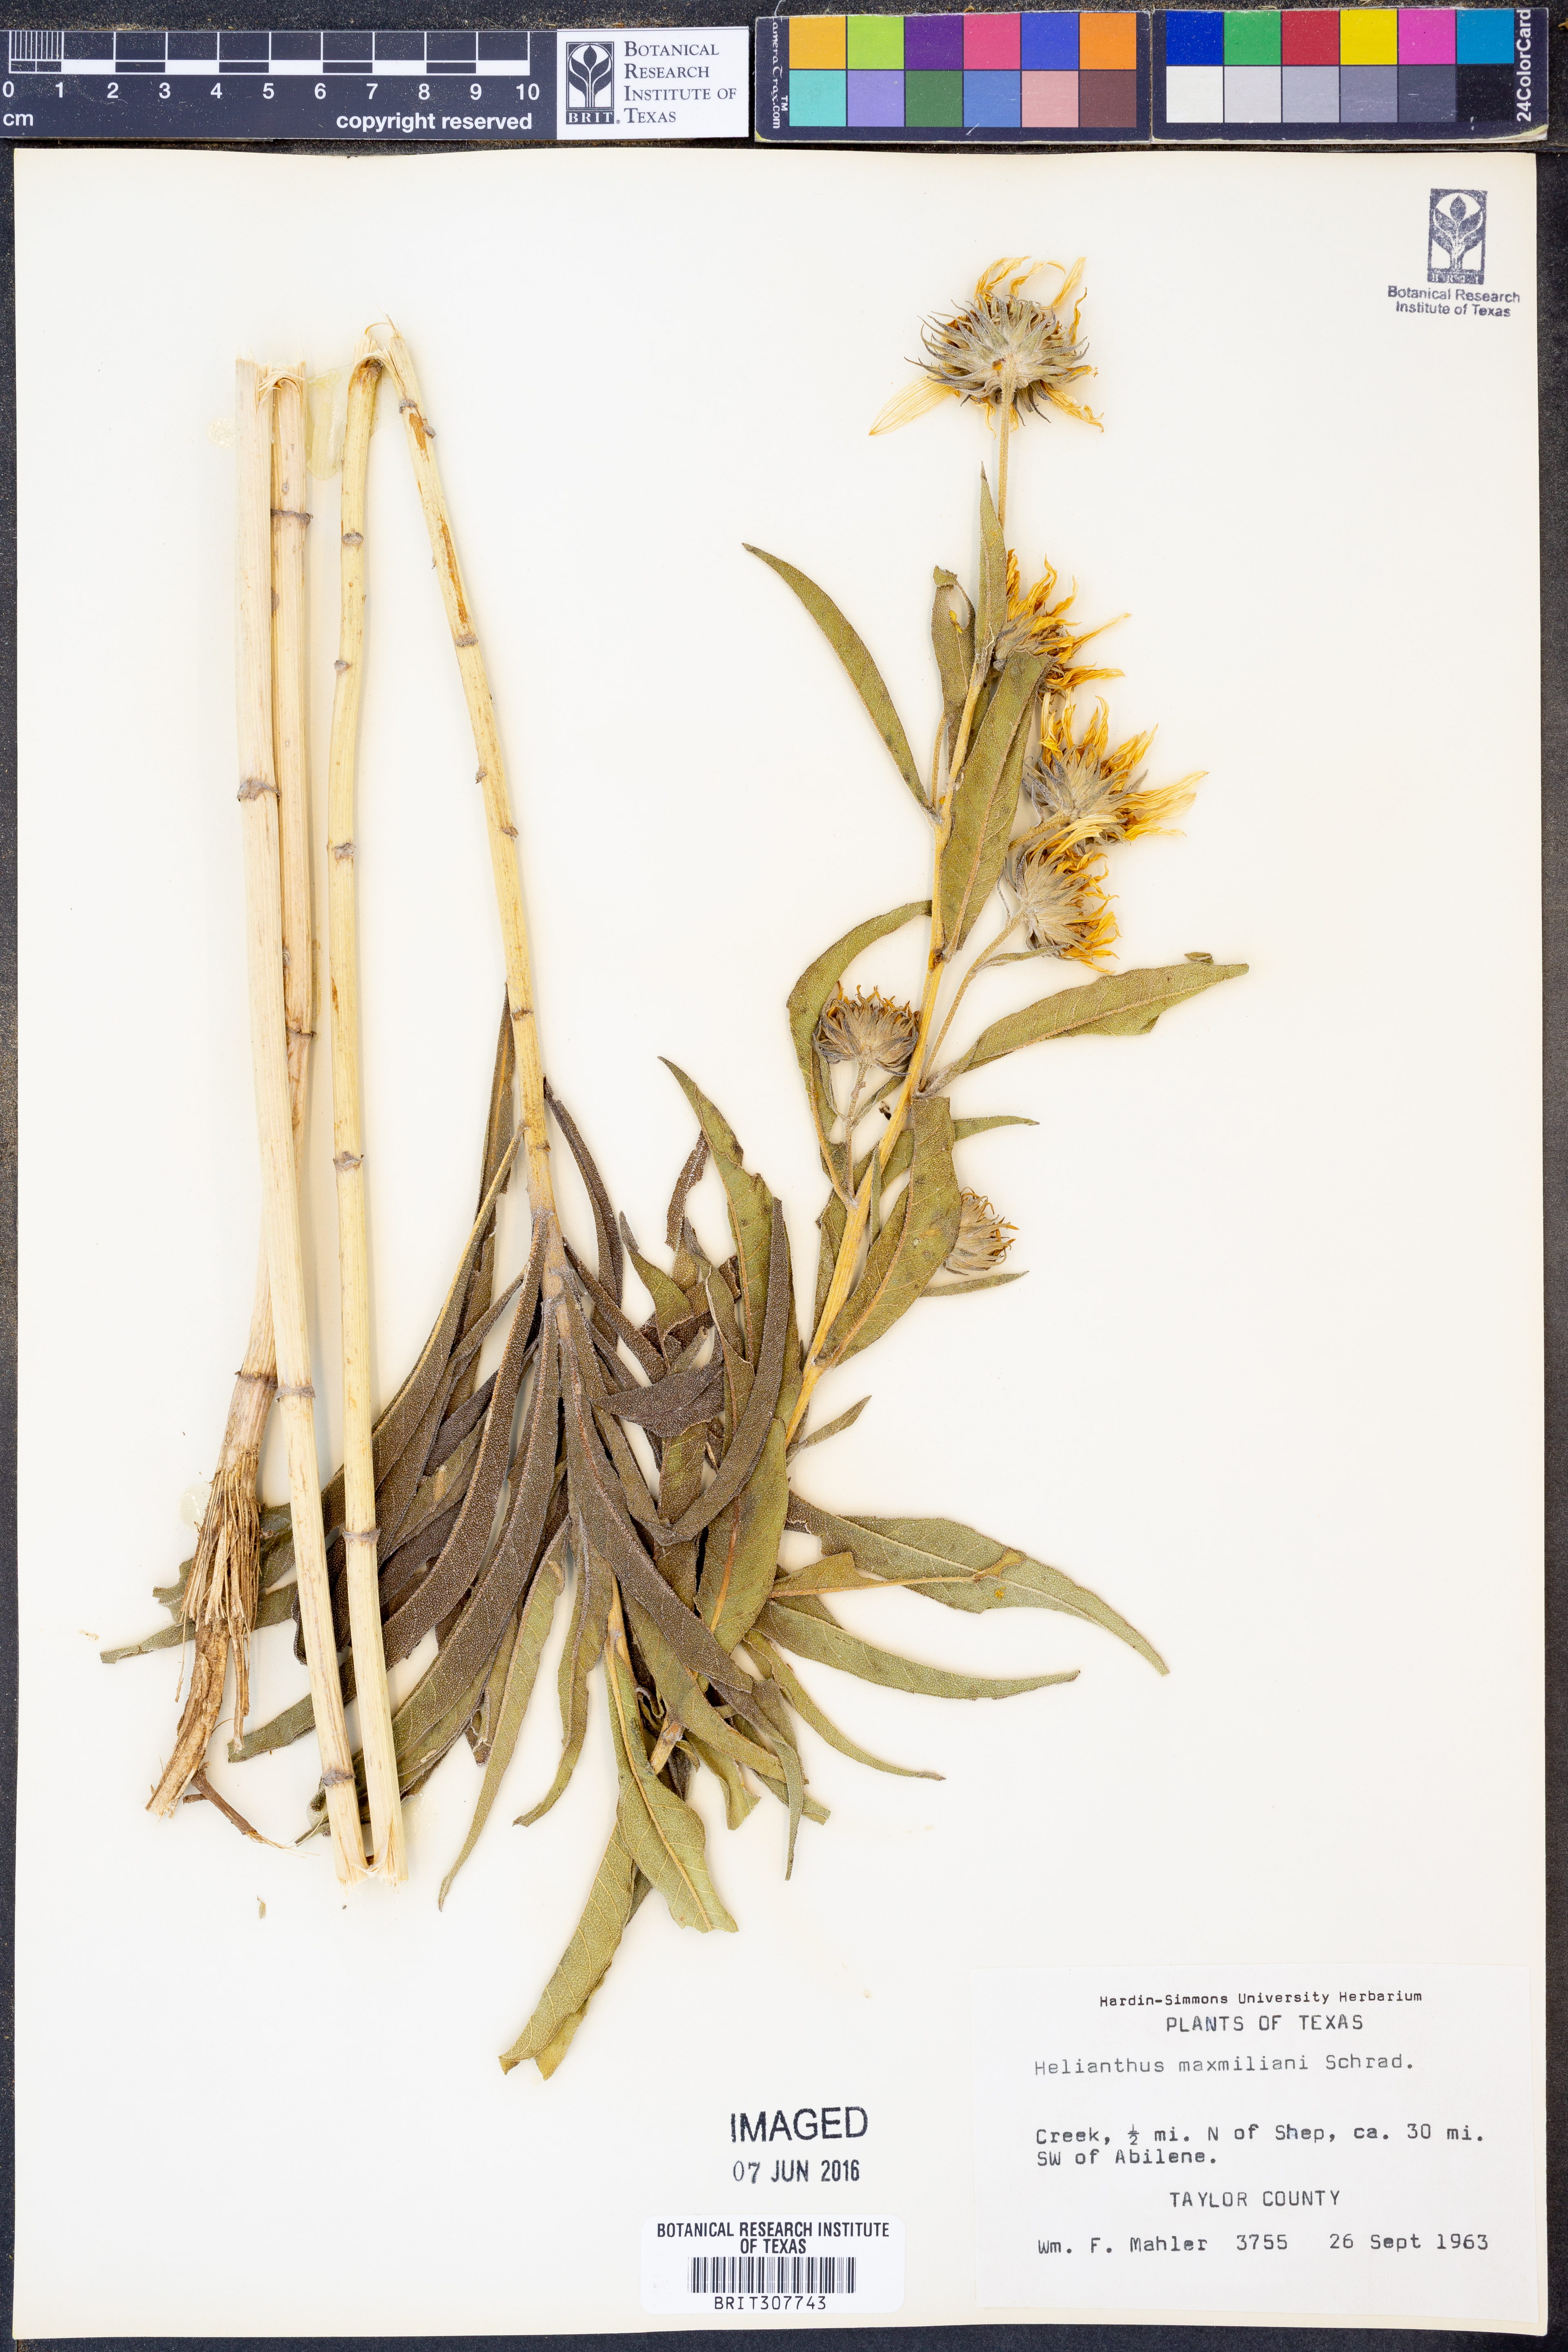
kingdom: Plantae
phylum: Tracheophyta
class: Magnoliopsida
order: Asterales
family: Asteraceae
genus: Helianthus
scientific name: Helianthus maximiliani
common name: Maximilian's sunflower
